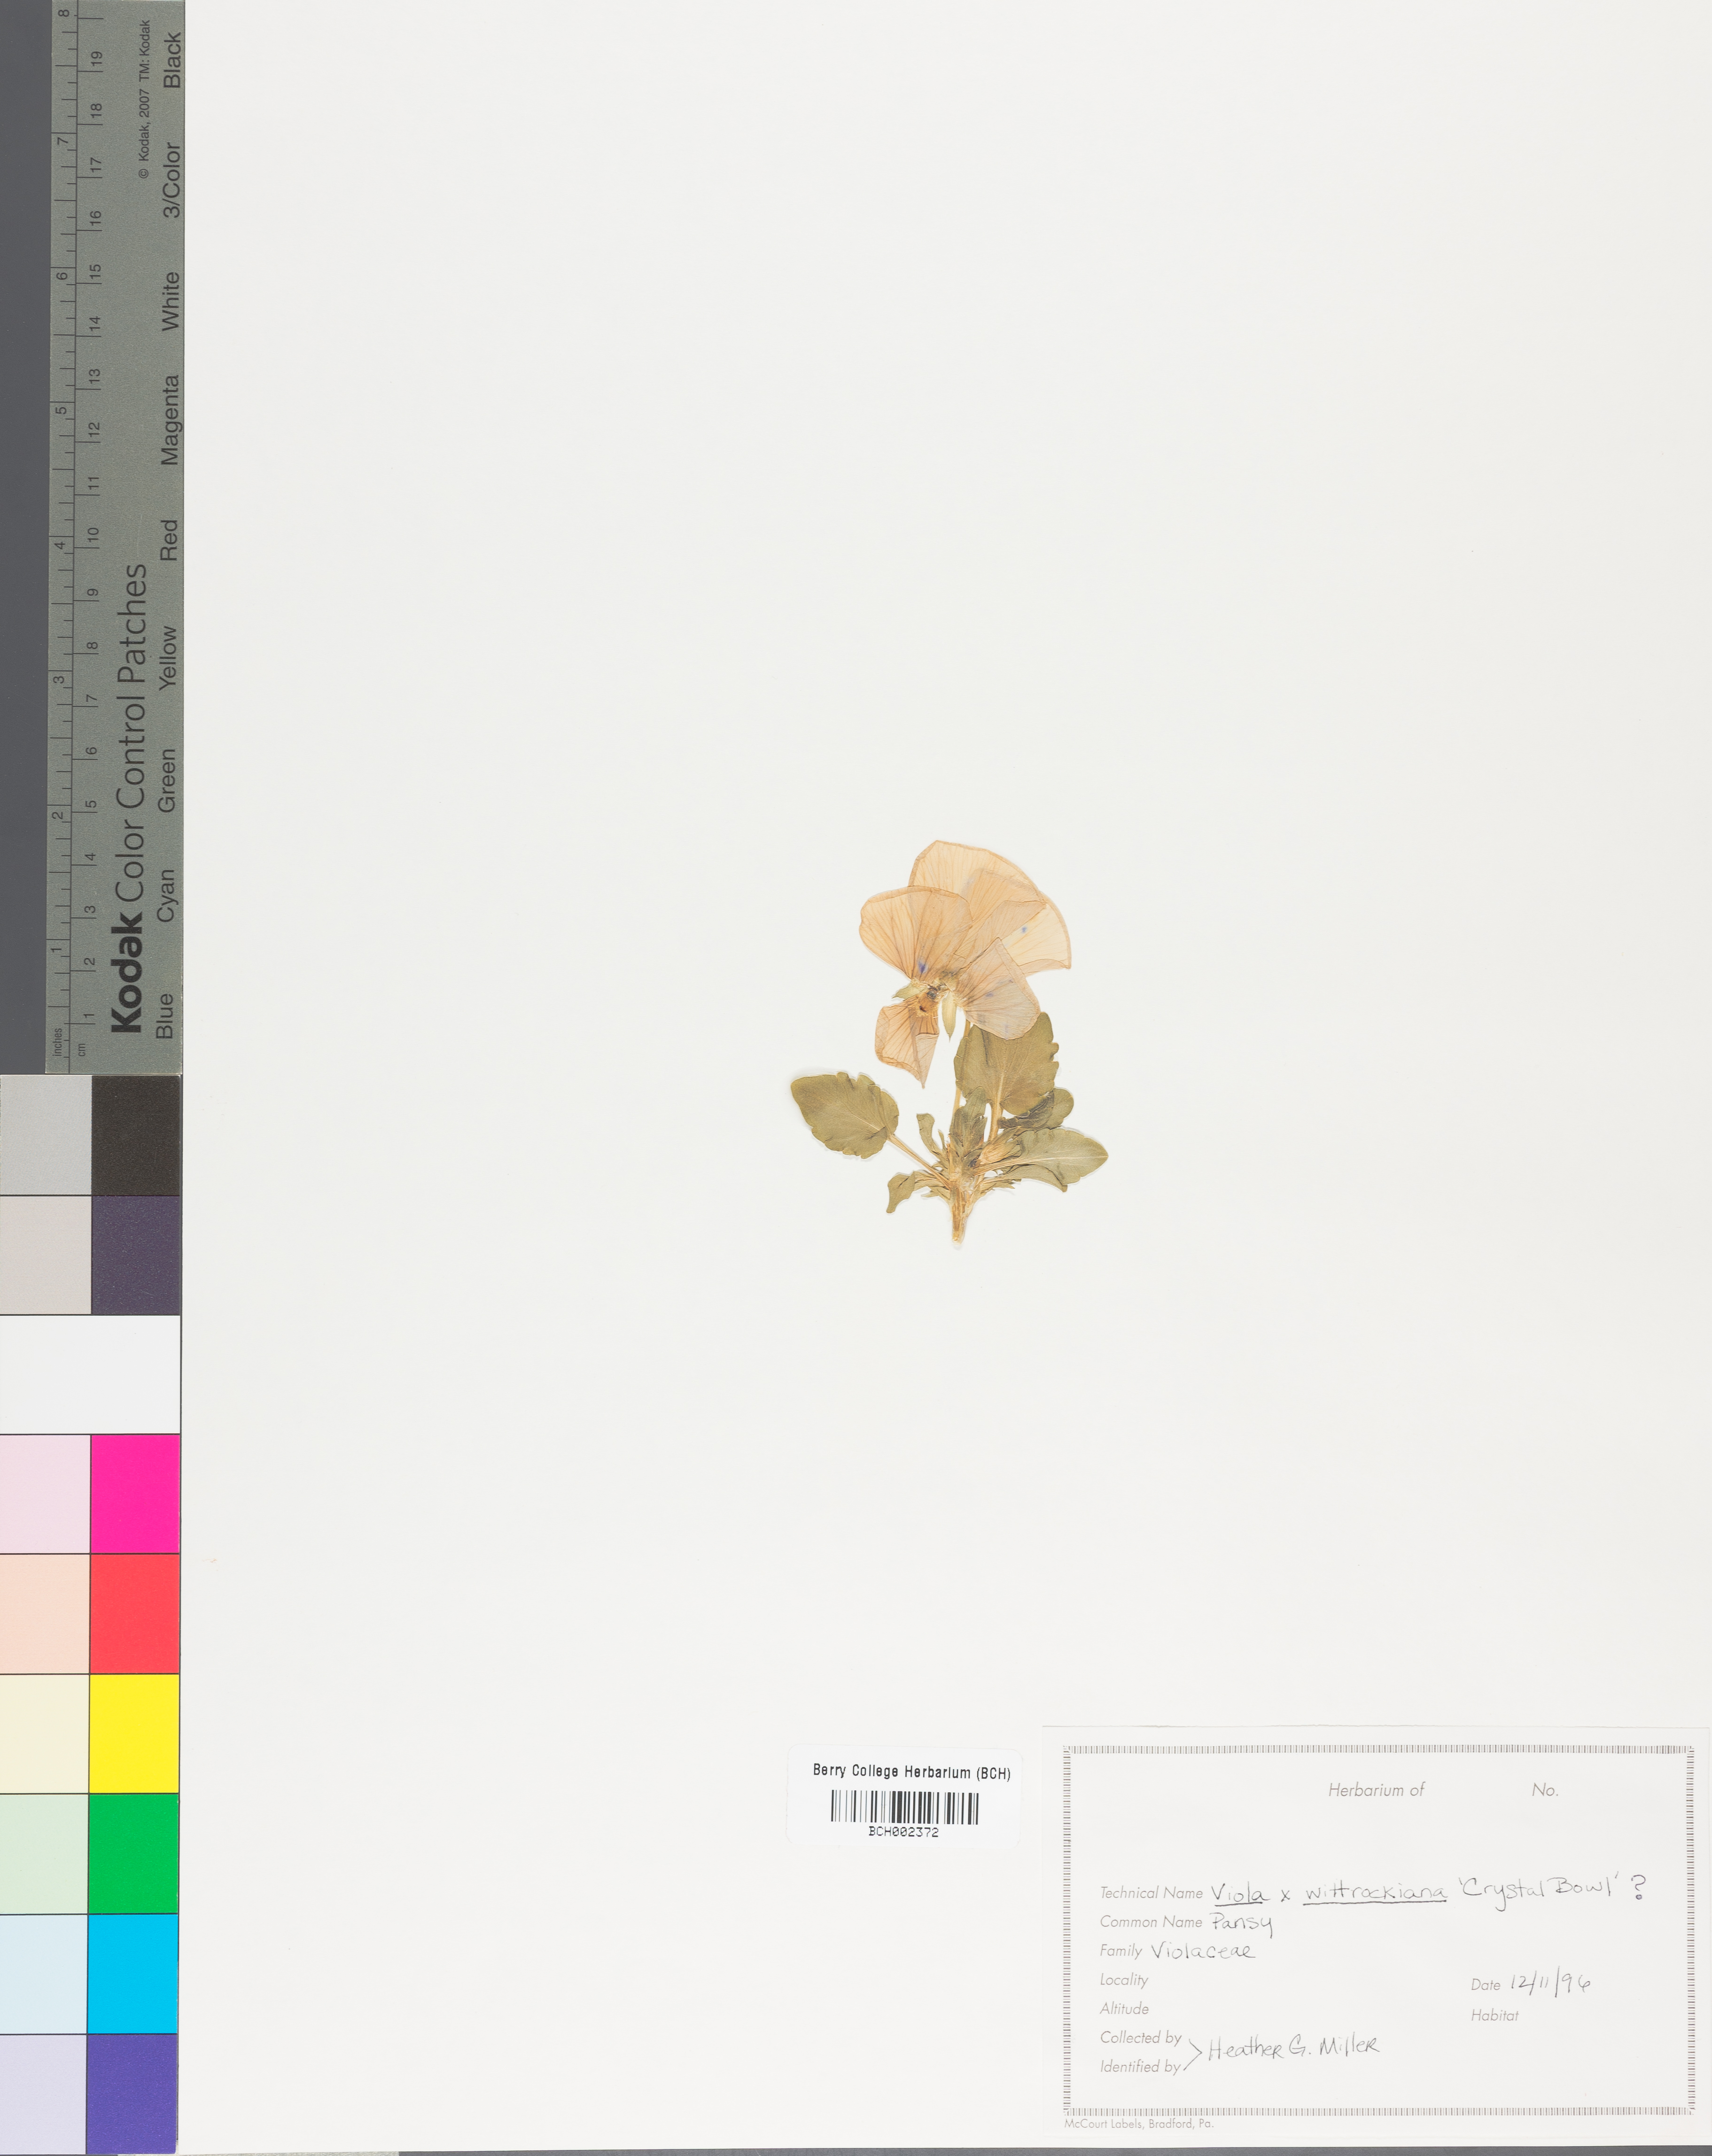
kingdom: Plantae
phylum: Tracheophyta
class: Magnoliopsida
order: Malpighiales
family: Violaceae
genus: Viola
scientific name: Viola rafinesquei
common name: American field pansy
